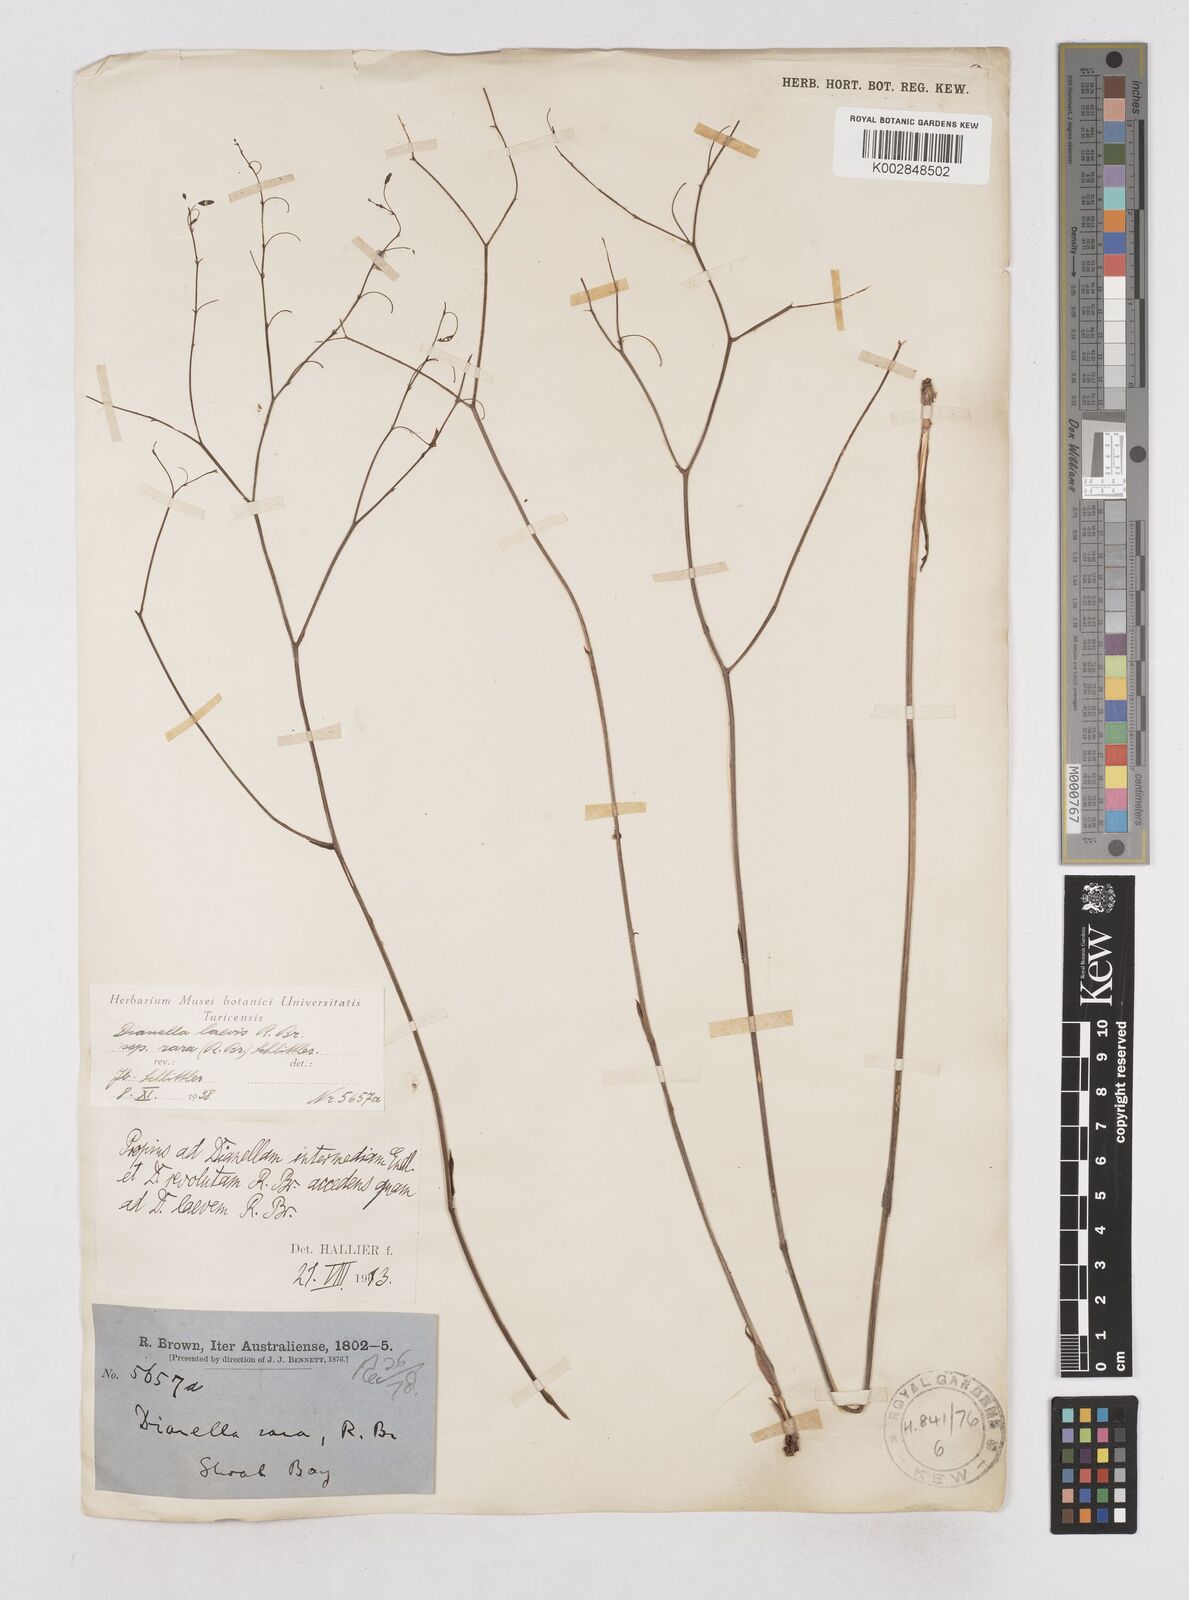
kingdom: Plantae
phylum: Tracheophyta
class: Liliopsida
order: Asparagales
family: Asphodelaceae
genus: Dianella
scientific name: Dianella longifolia
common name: Blue flax-lily
